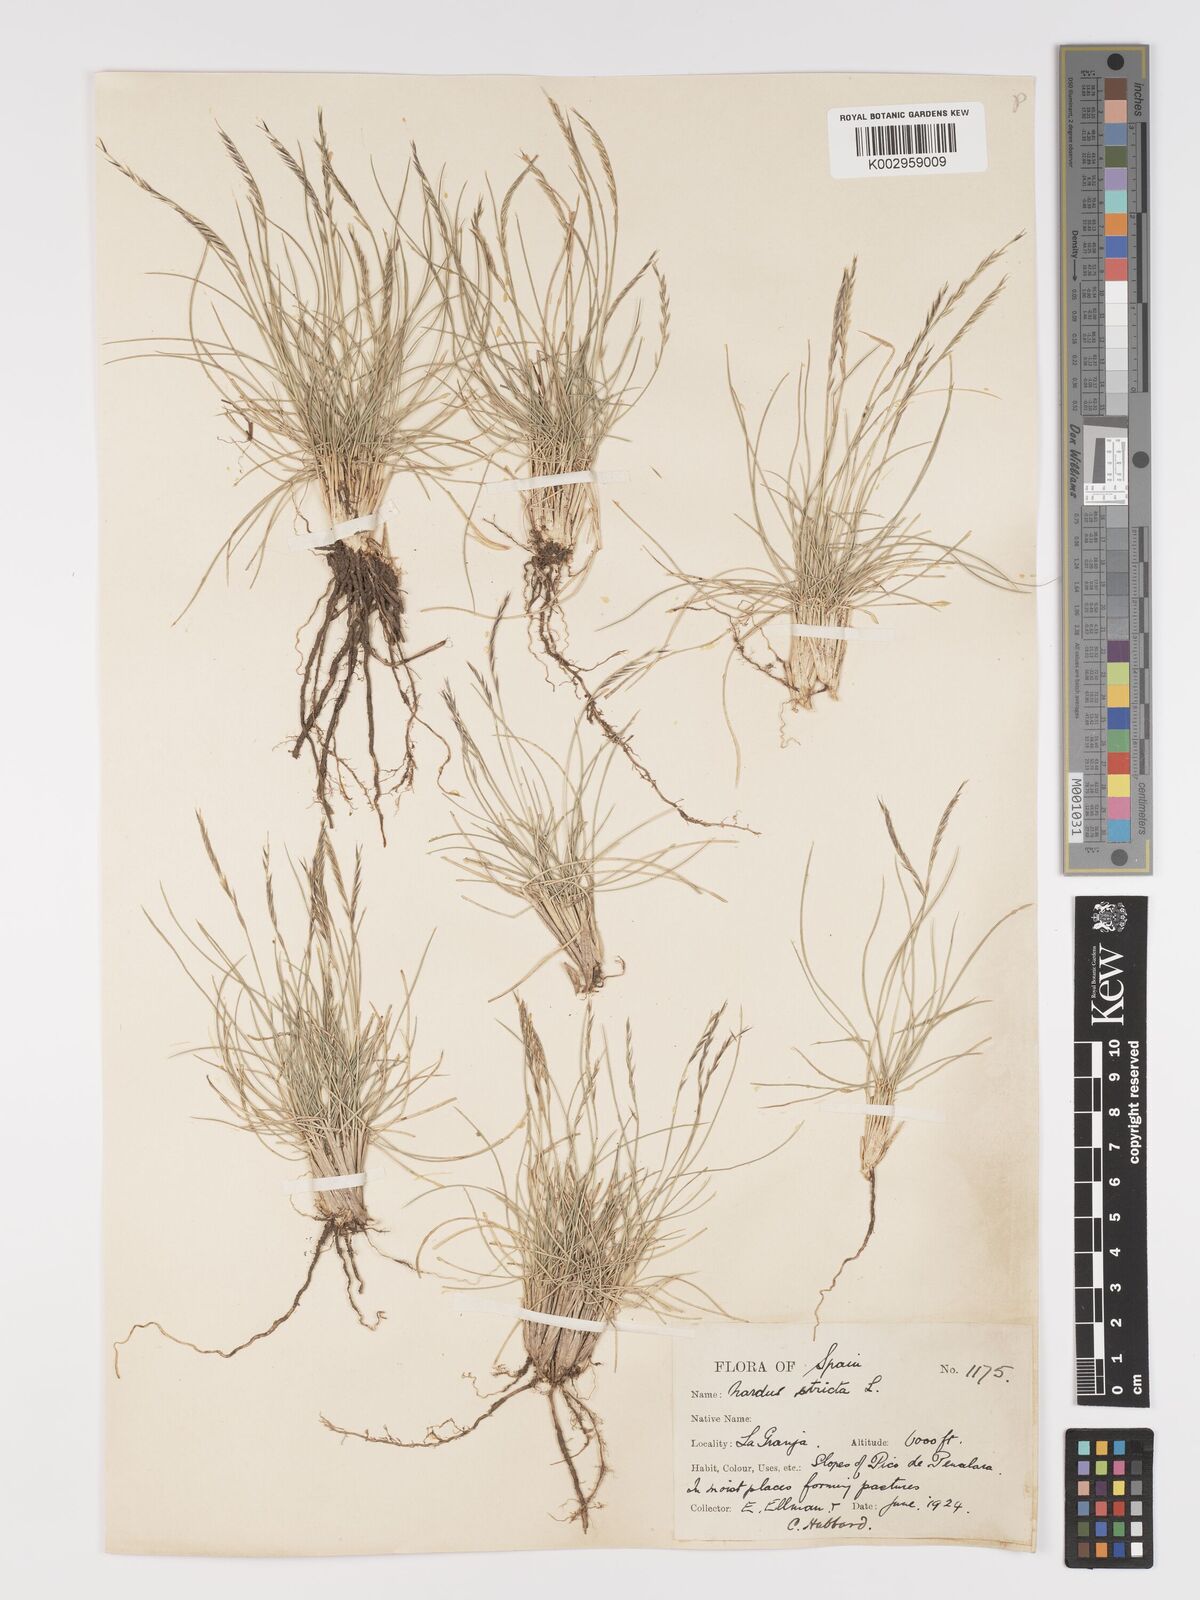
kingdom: Plantae
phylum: Tracheophyta
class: Liliopsida
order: Poales
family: Poaceae
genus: Nardus
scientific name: Nardus stricta
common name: Mat-grass
